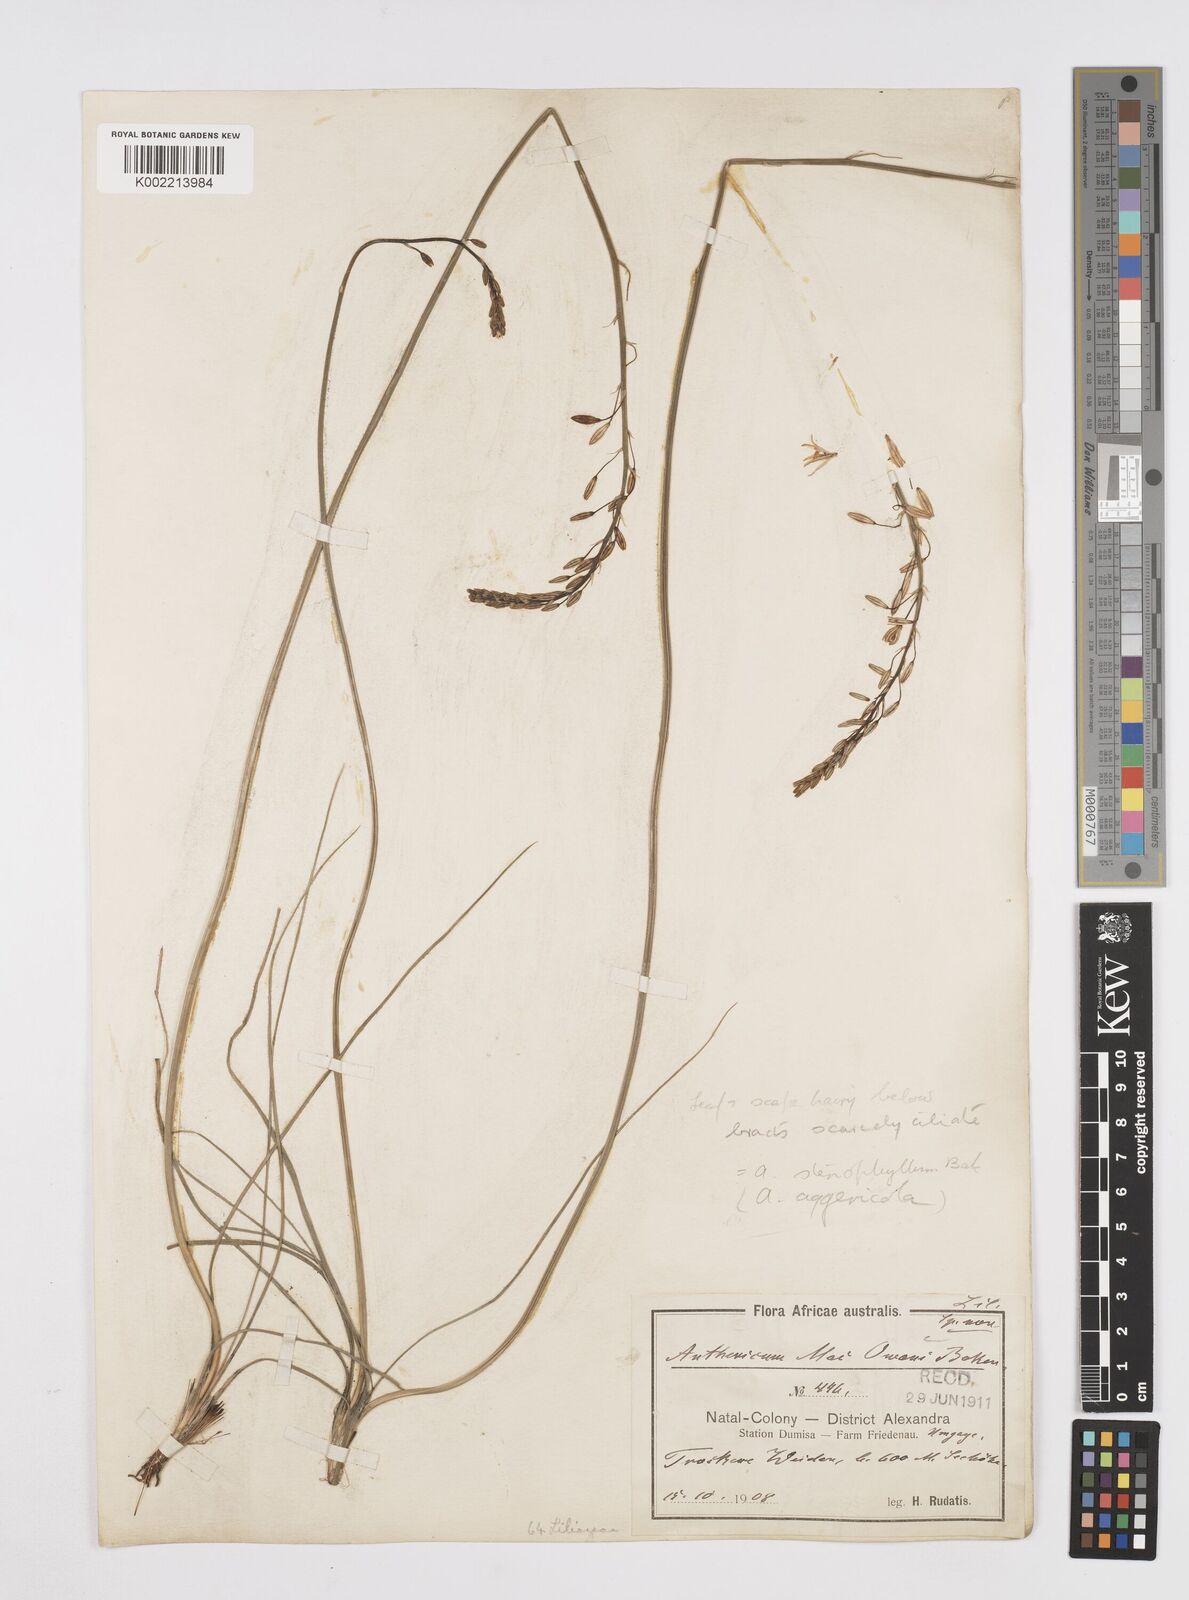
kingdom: Plantae
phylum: Tracheophyta
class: Liliopsida
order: Asparagales
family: Asphodelaceae
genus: Trachyandra
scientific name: Trachyandra
